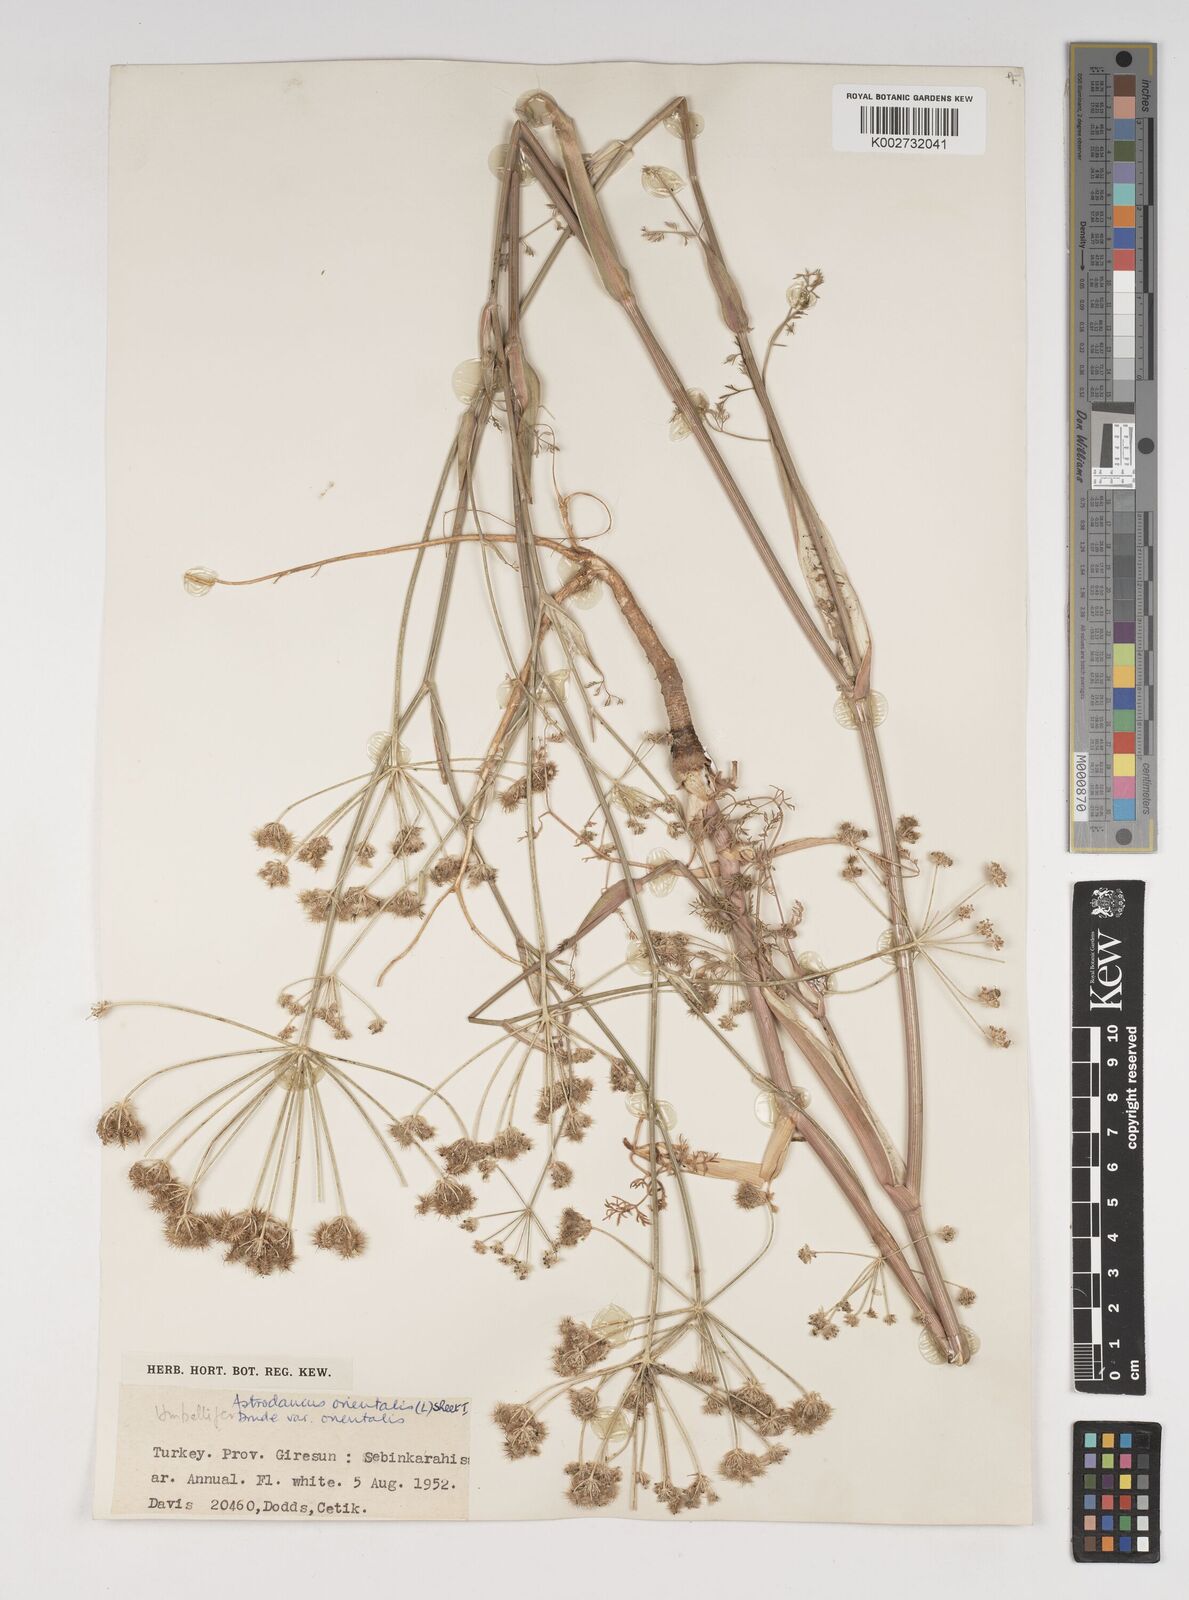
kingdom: Plantae
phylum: Tracheophyta
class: Magnoliopsida
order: Apiales
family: Apiaceae
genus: Astrodaucus
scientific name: Astrodaucus
